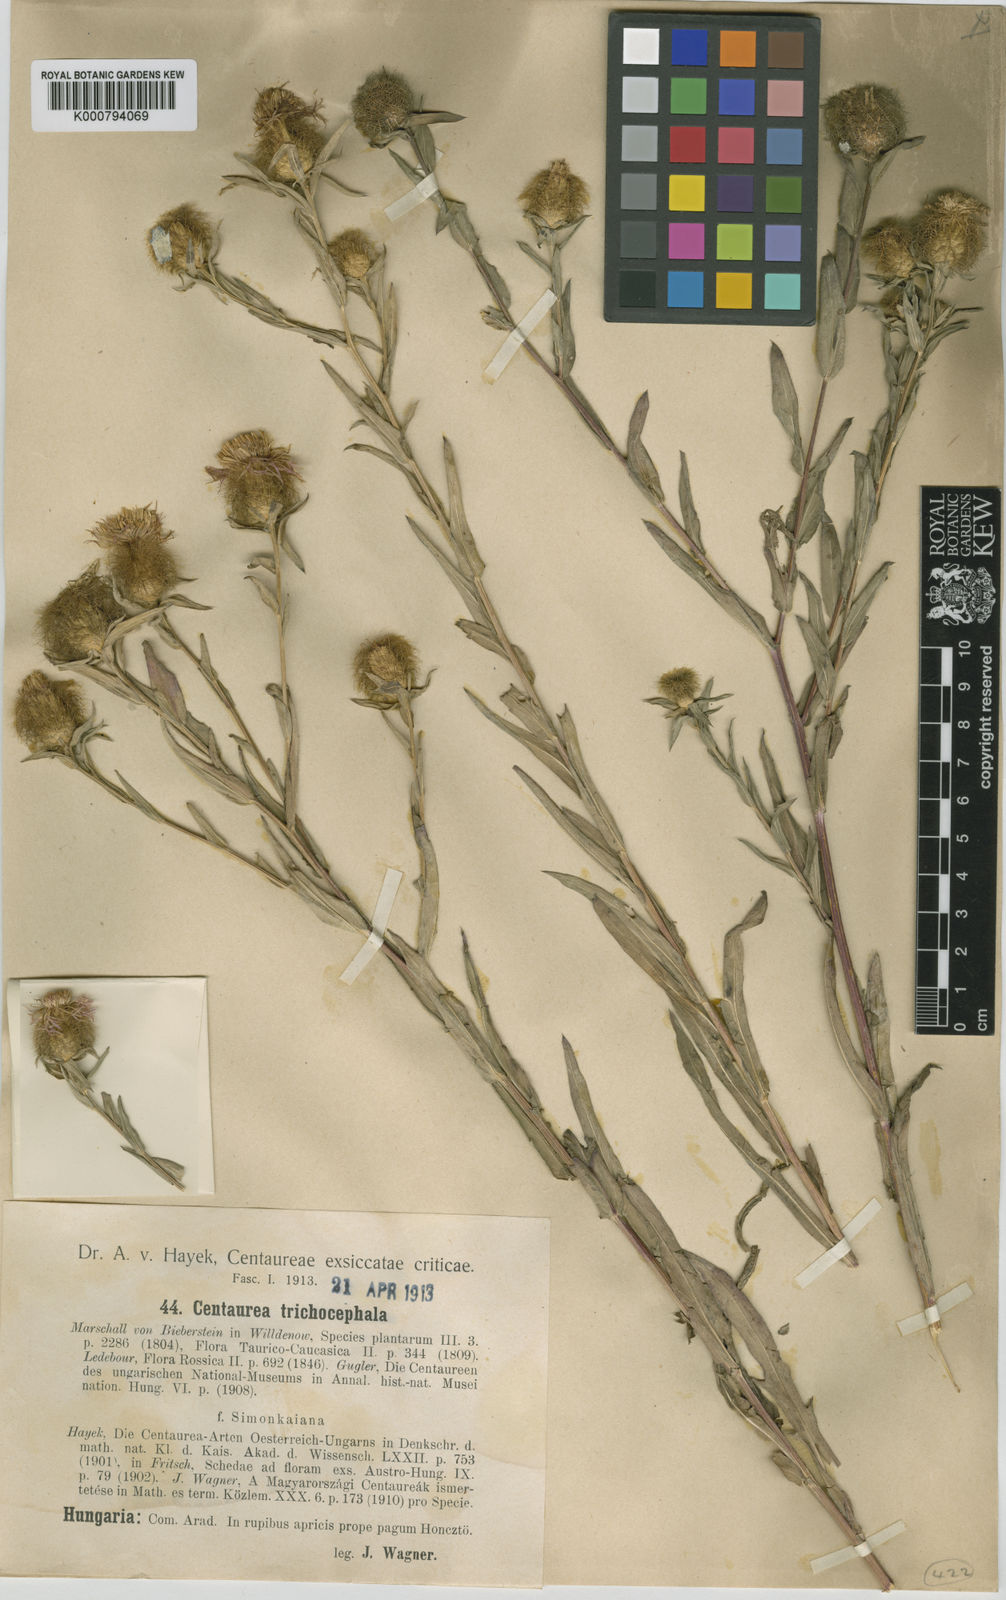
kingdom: Plantae
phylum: Tracheophyta
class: Magnoliopsida
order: Asterales
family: Asteraceae
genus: Centaurea
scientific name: Centaurea trichocephala
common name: Feather-head knapweed
